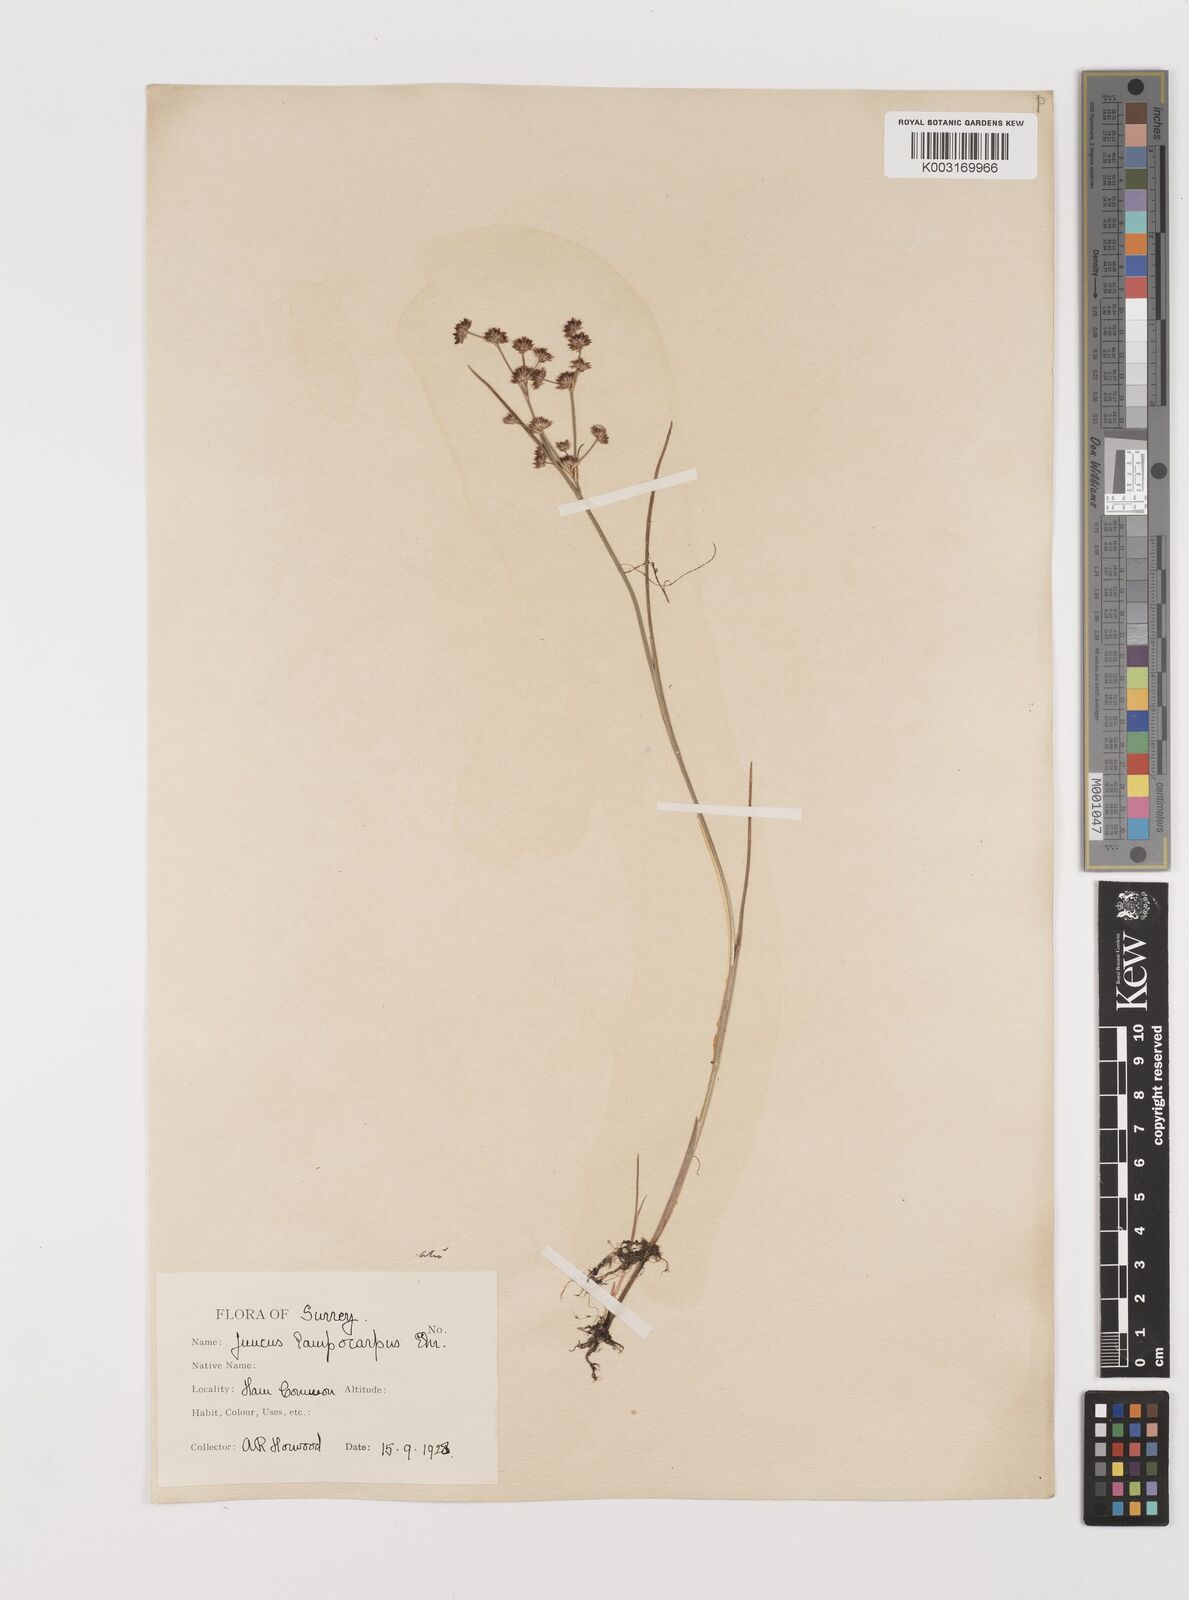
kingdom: Plantae
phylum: Tracheophyta
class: Liliopsida
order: Poales
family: Juncaceae
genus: Juncus
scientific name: Juncus articulatus
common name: Jointed rush
